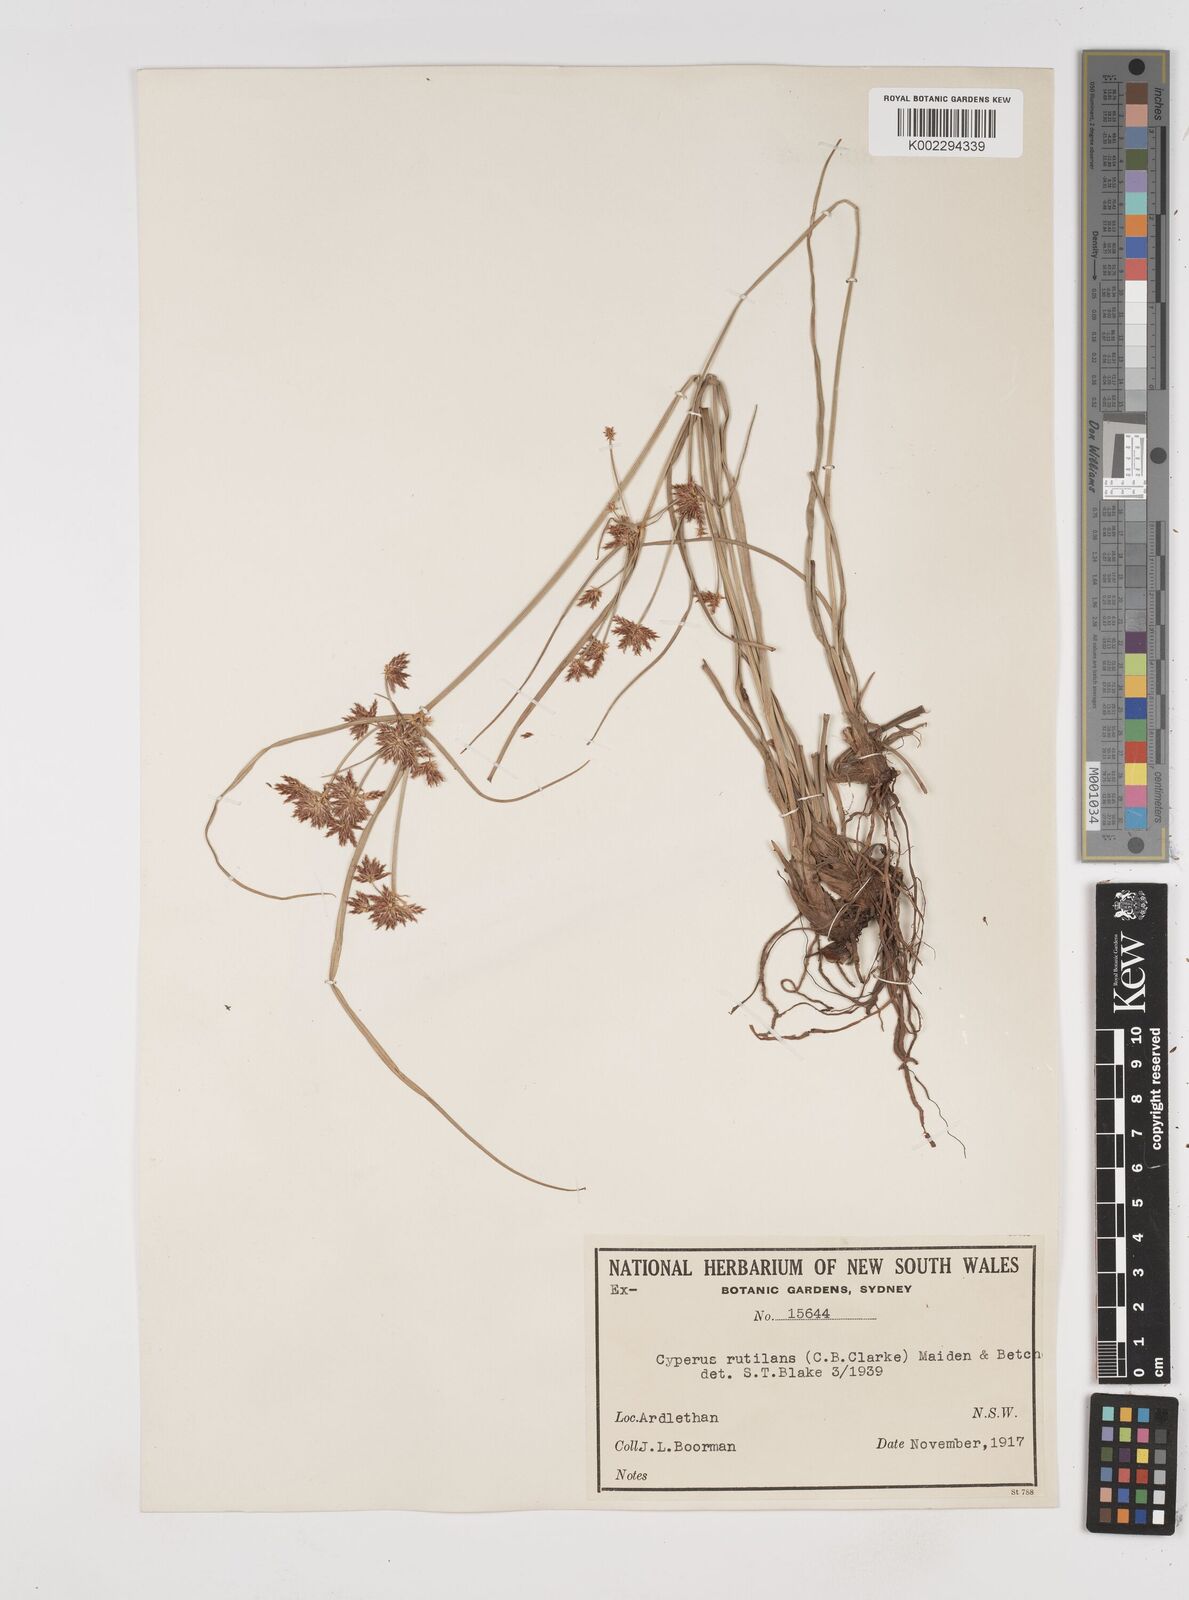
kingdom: Plantae
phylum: Tracheophyta
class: Liliopsida
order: Poales
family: Cyperaceae
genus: Cyperus
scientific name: Cyperus lhotskyanus
